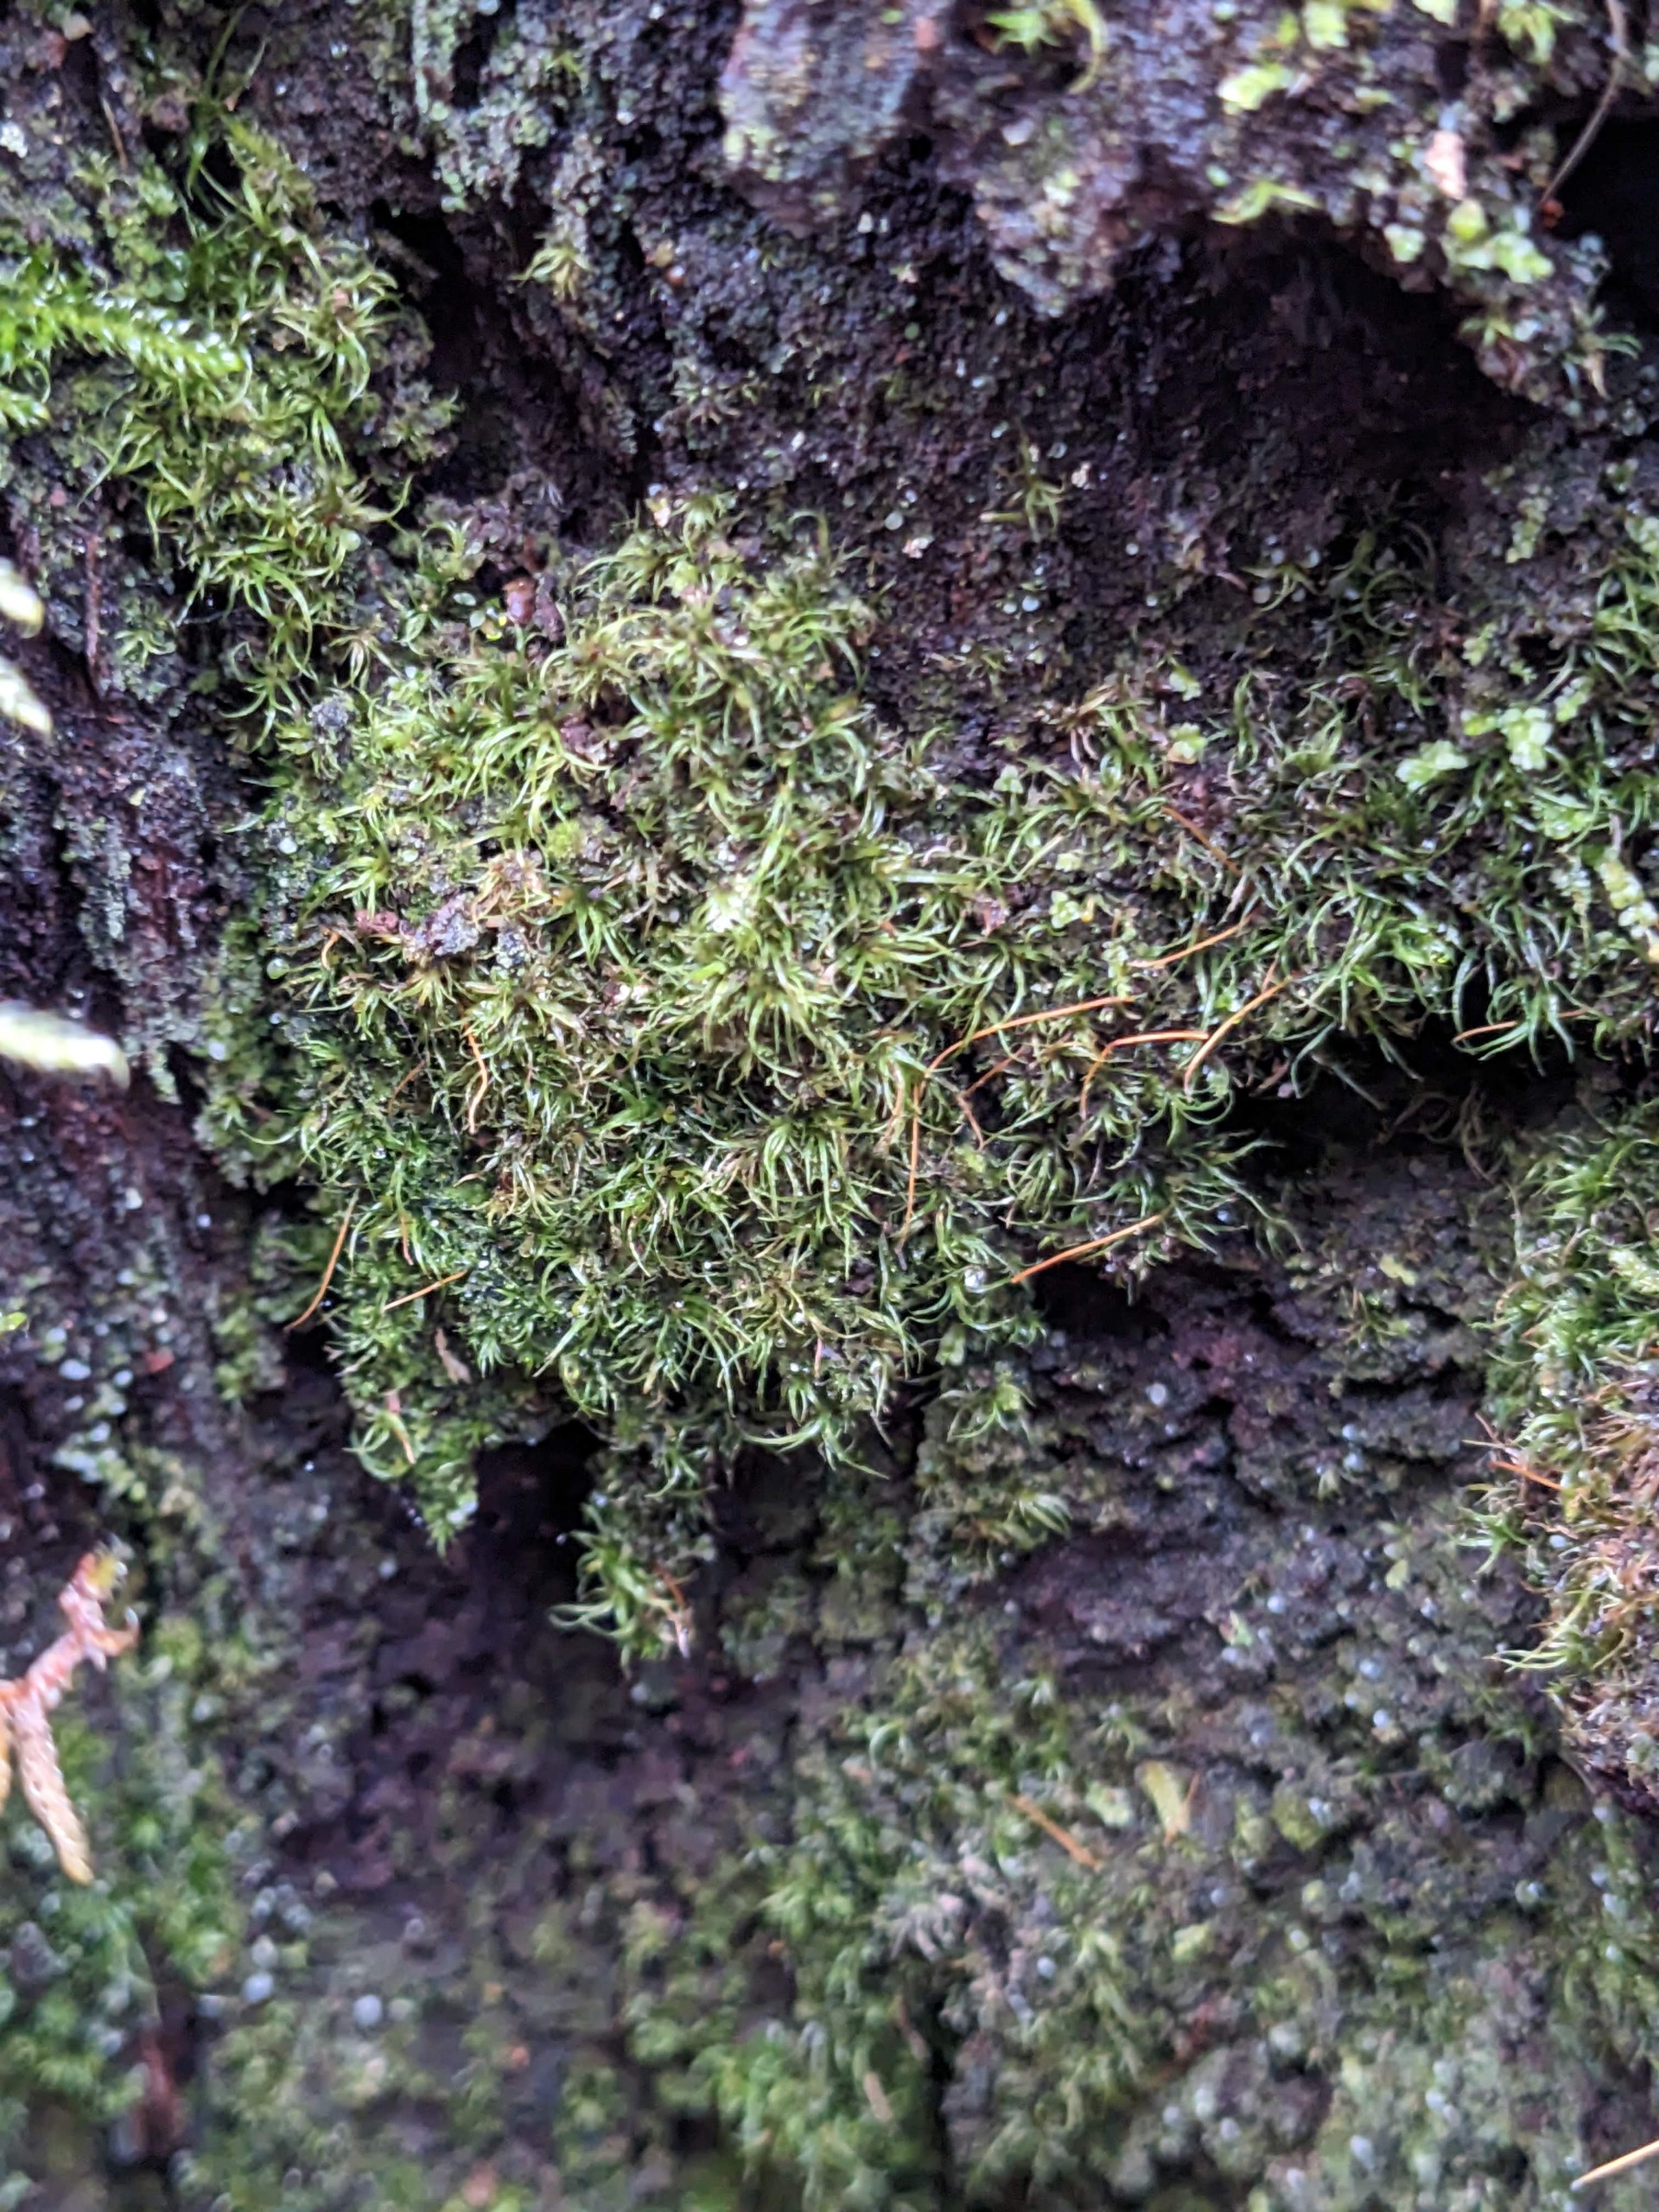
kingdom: Plantae
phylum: Bryophyta
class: Bryopsida
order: Orthodontiales
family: Orthodontiaceae
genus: Orthodontium
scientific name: Orthodontium lineare
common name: Smalbladet plysmos
